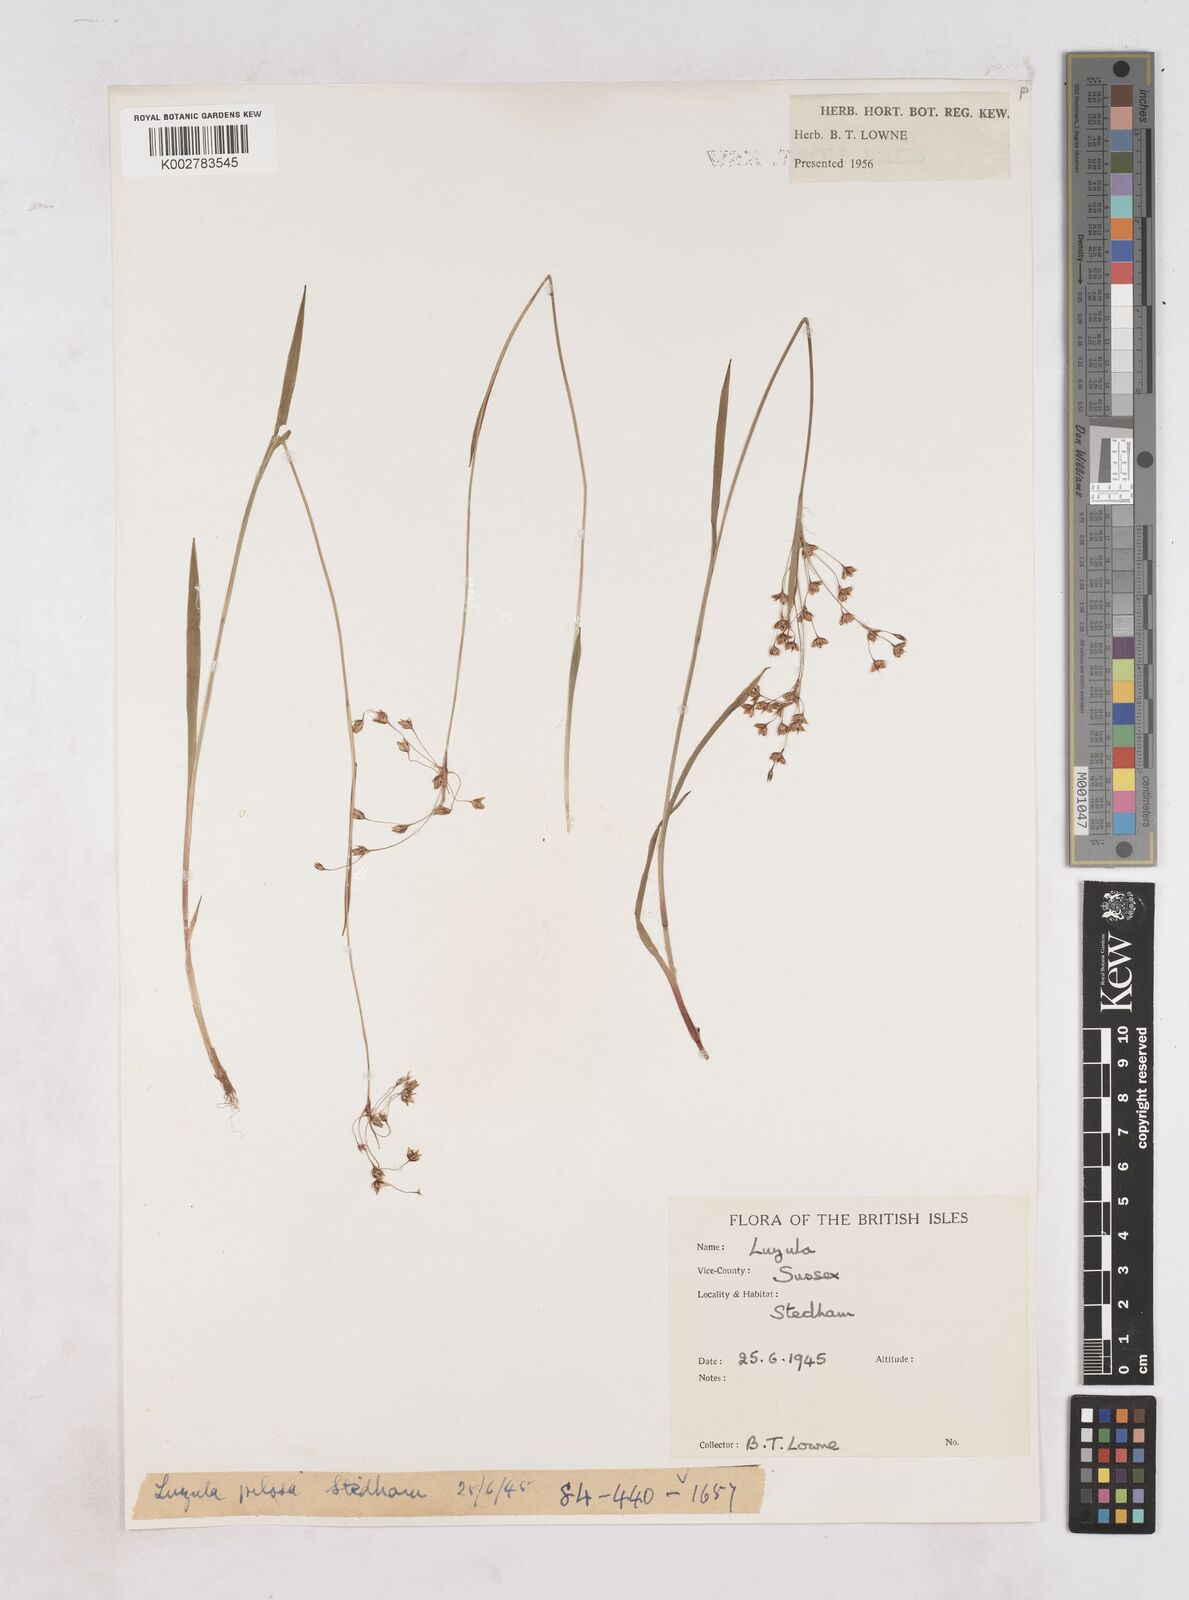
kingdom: Plantae
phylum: Tracheophyta
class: Liliopsida
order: Poales
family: Juncaceae
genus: Luzula
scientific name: Luzula
